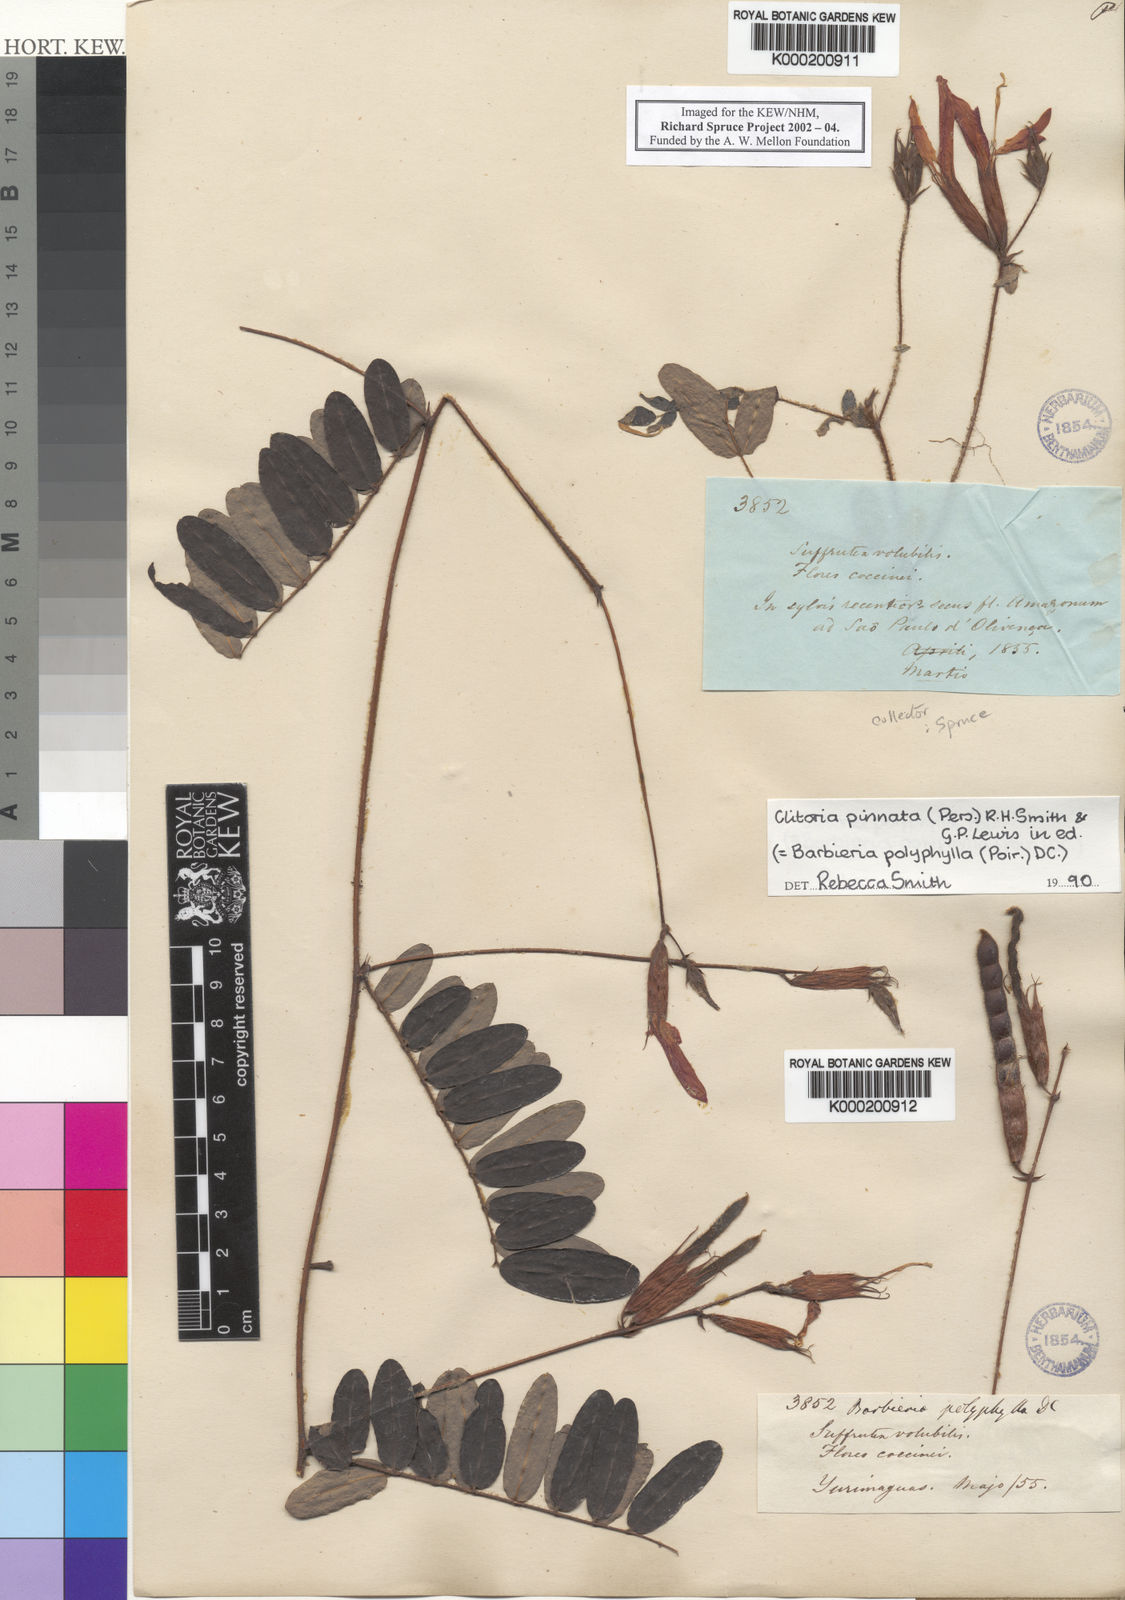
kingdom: Plantae
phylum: Tracheophyta
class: Magnoliopsida
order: Fabales
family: Fabaceae
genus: Barbieria
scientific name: Barbieria pinnata
